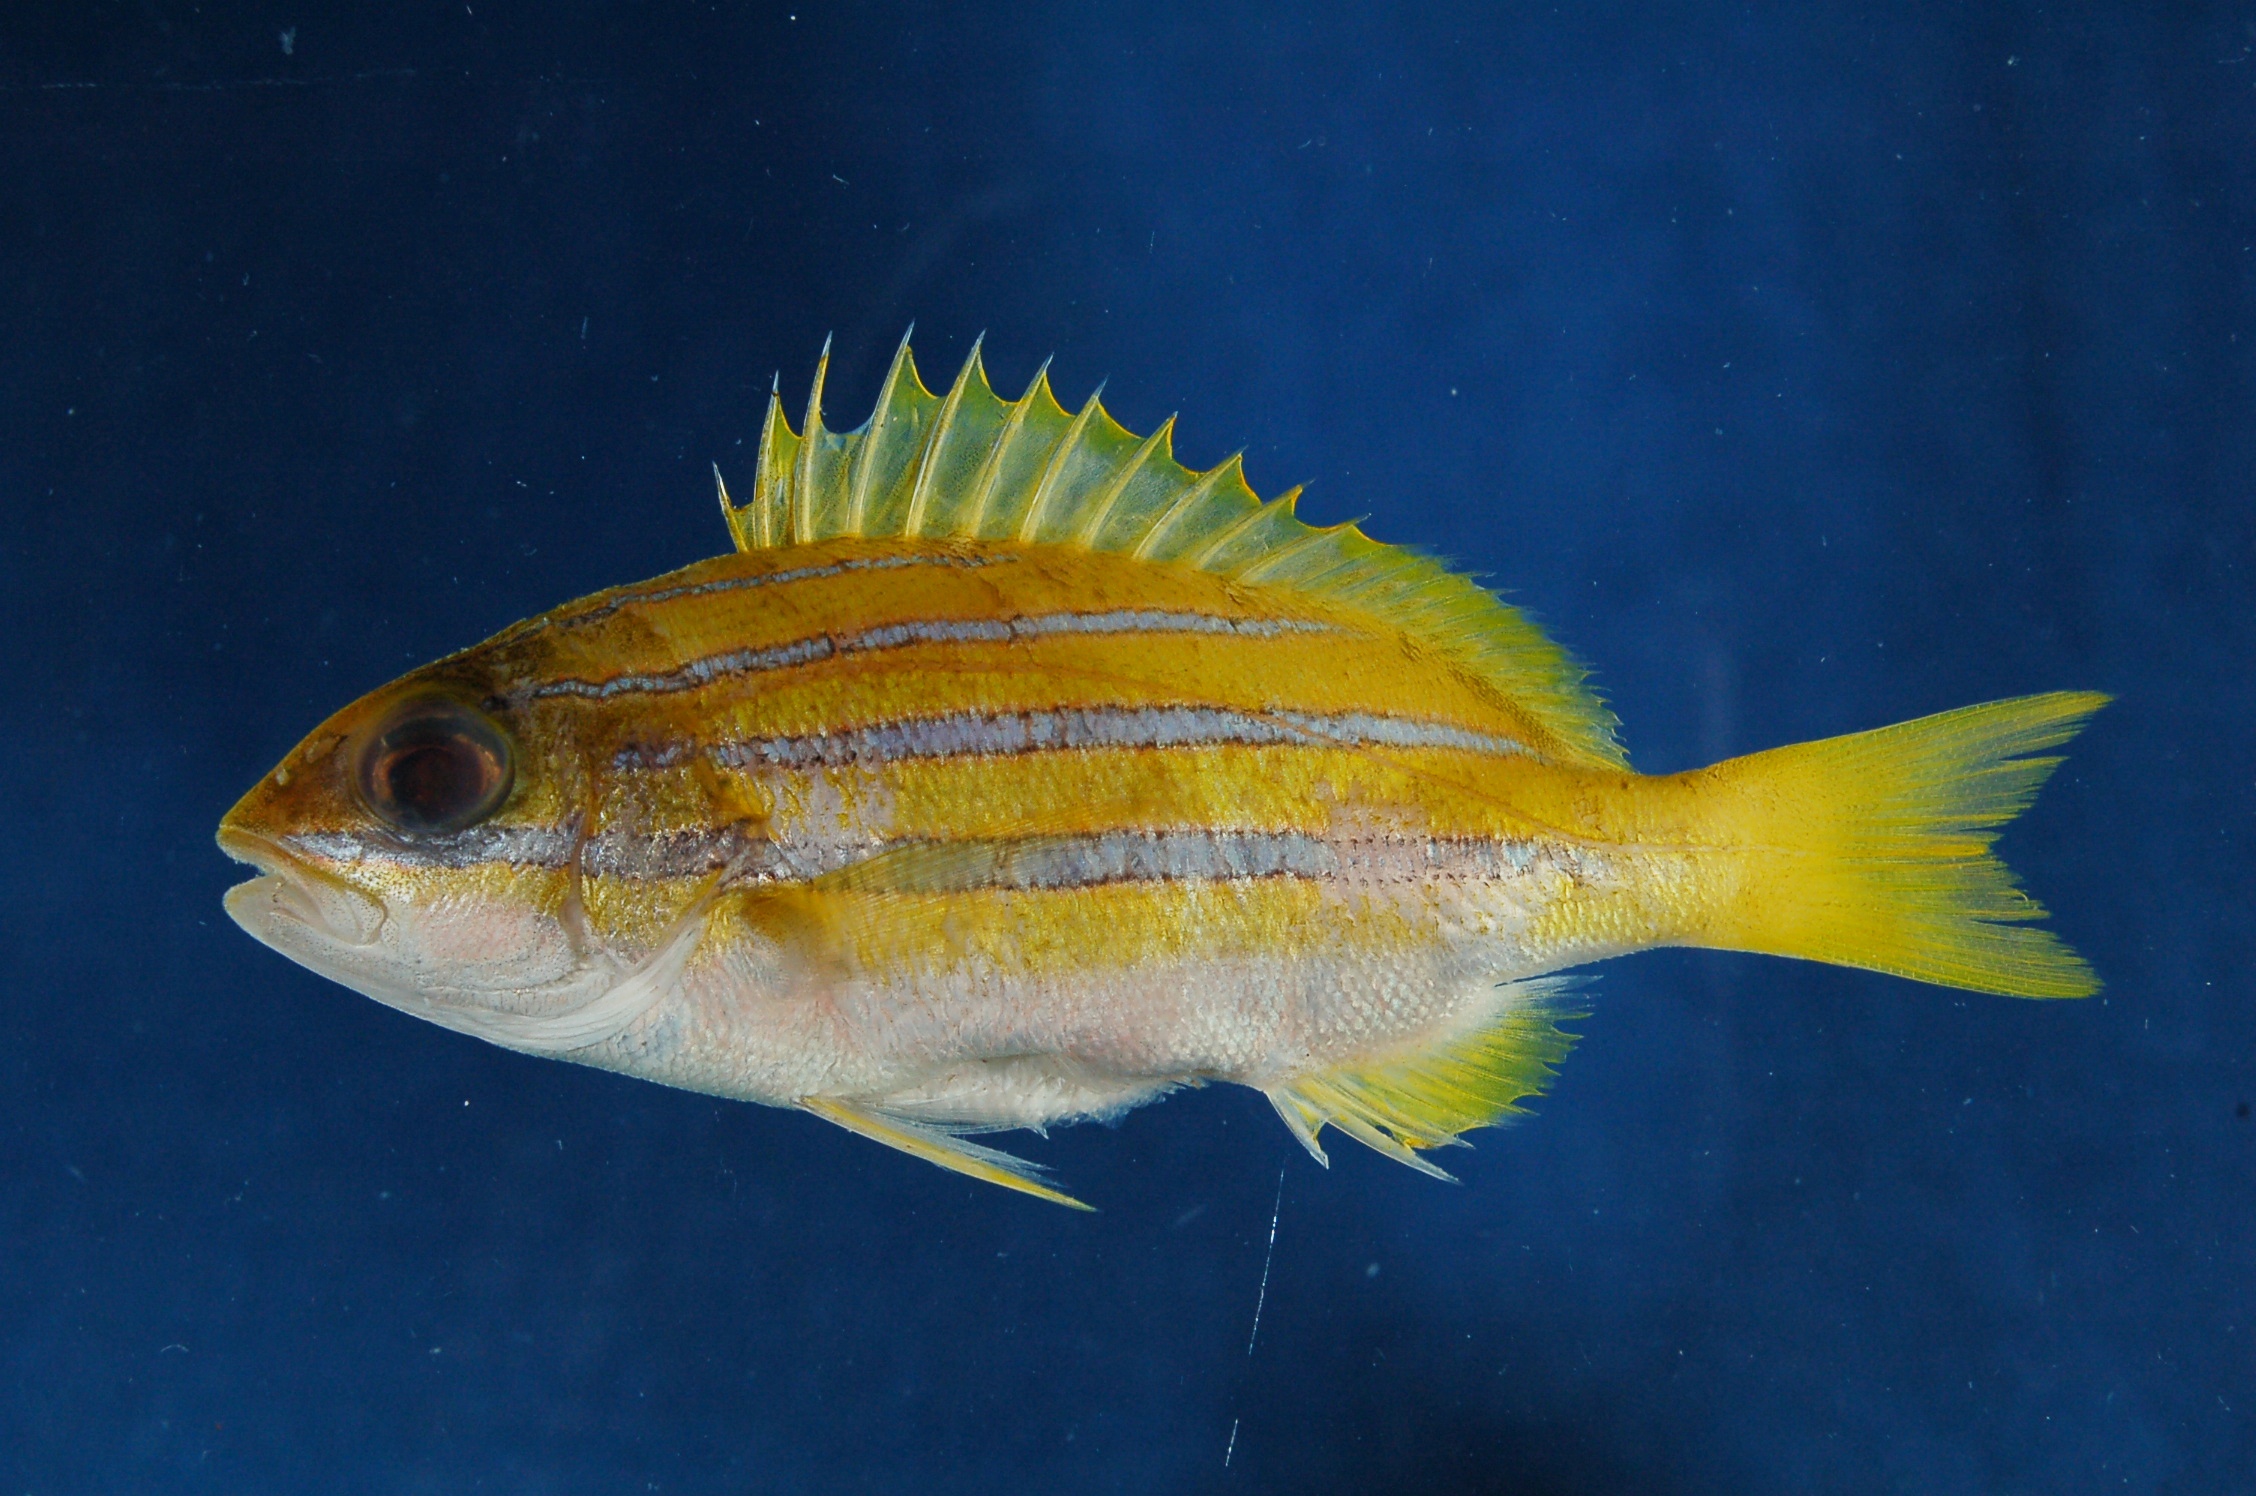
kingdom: Animalia
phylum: Chordata
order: Perciformes
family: Lutjanidae
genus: Lutjanus
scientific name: Lutjanus bengalensis
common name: Bengal snapper
